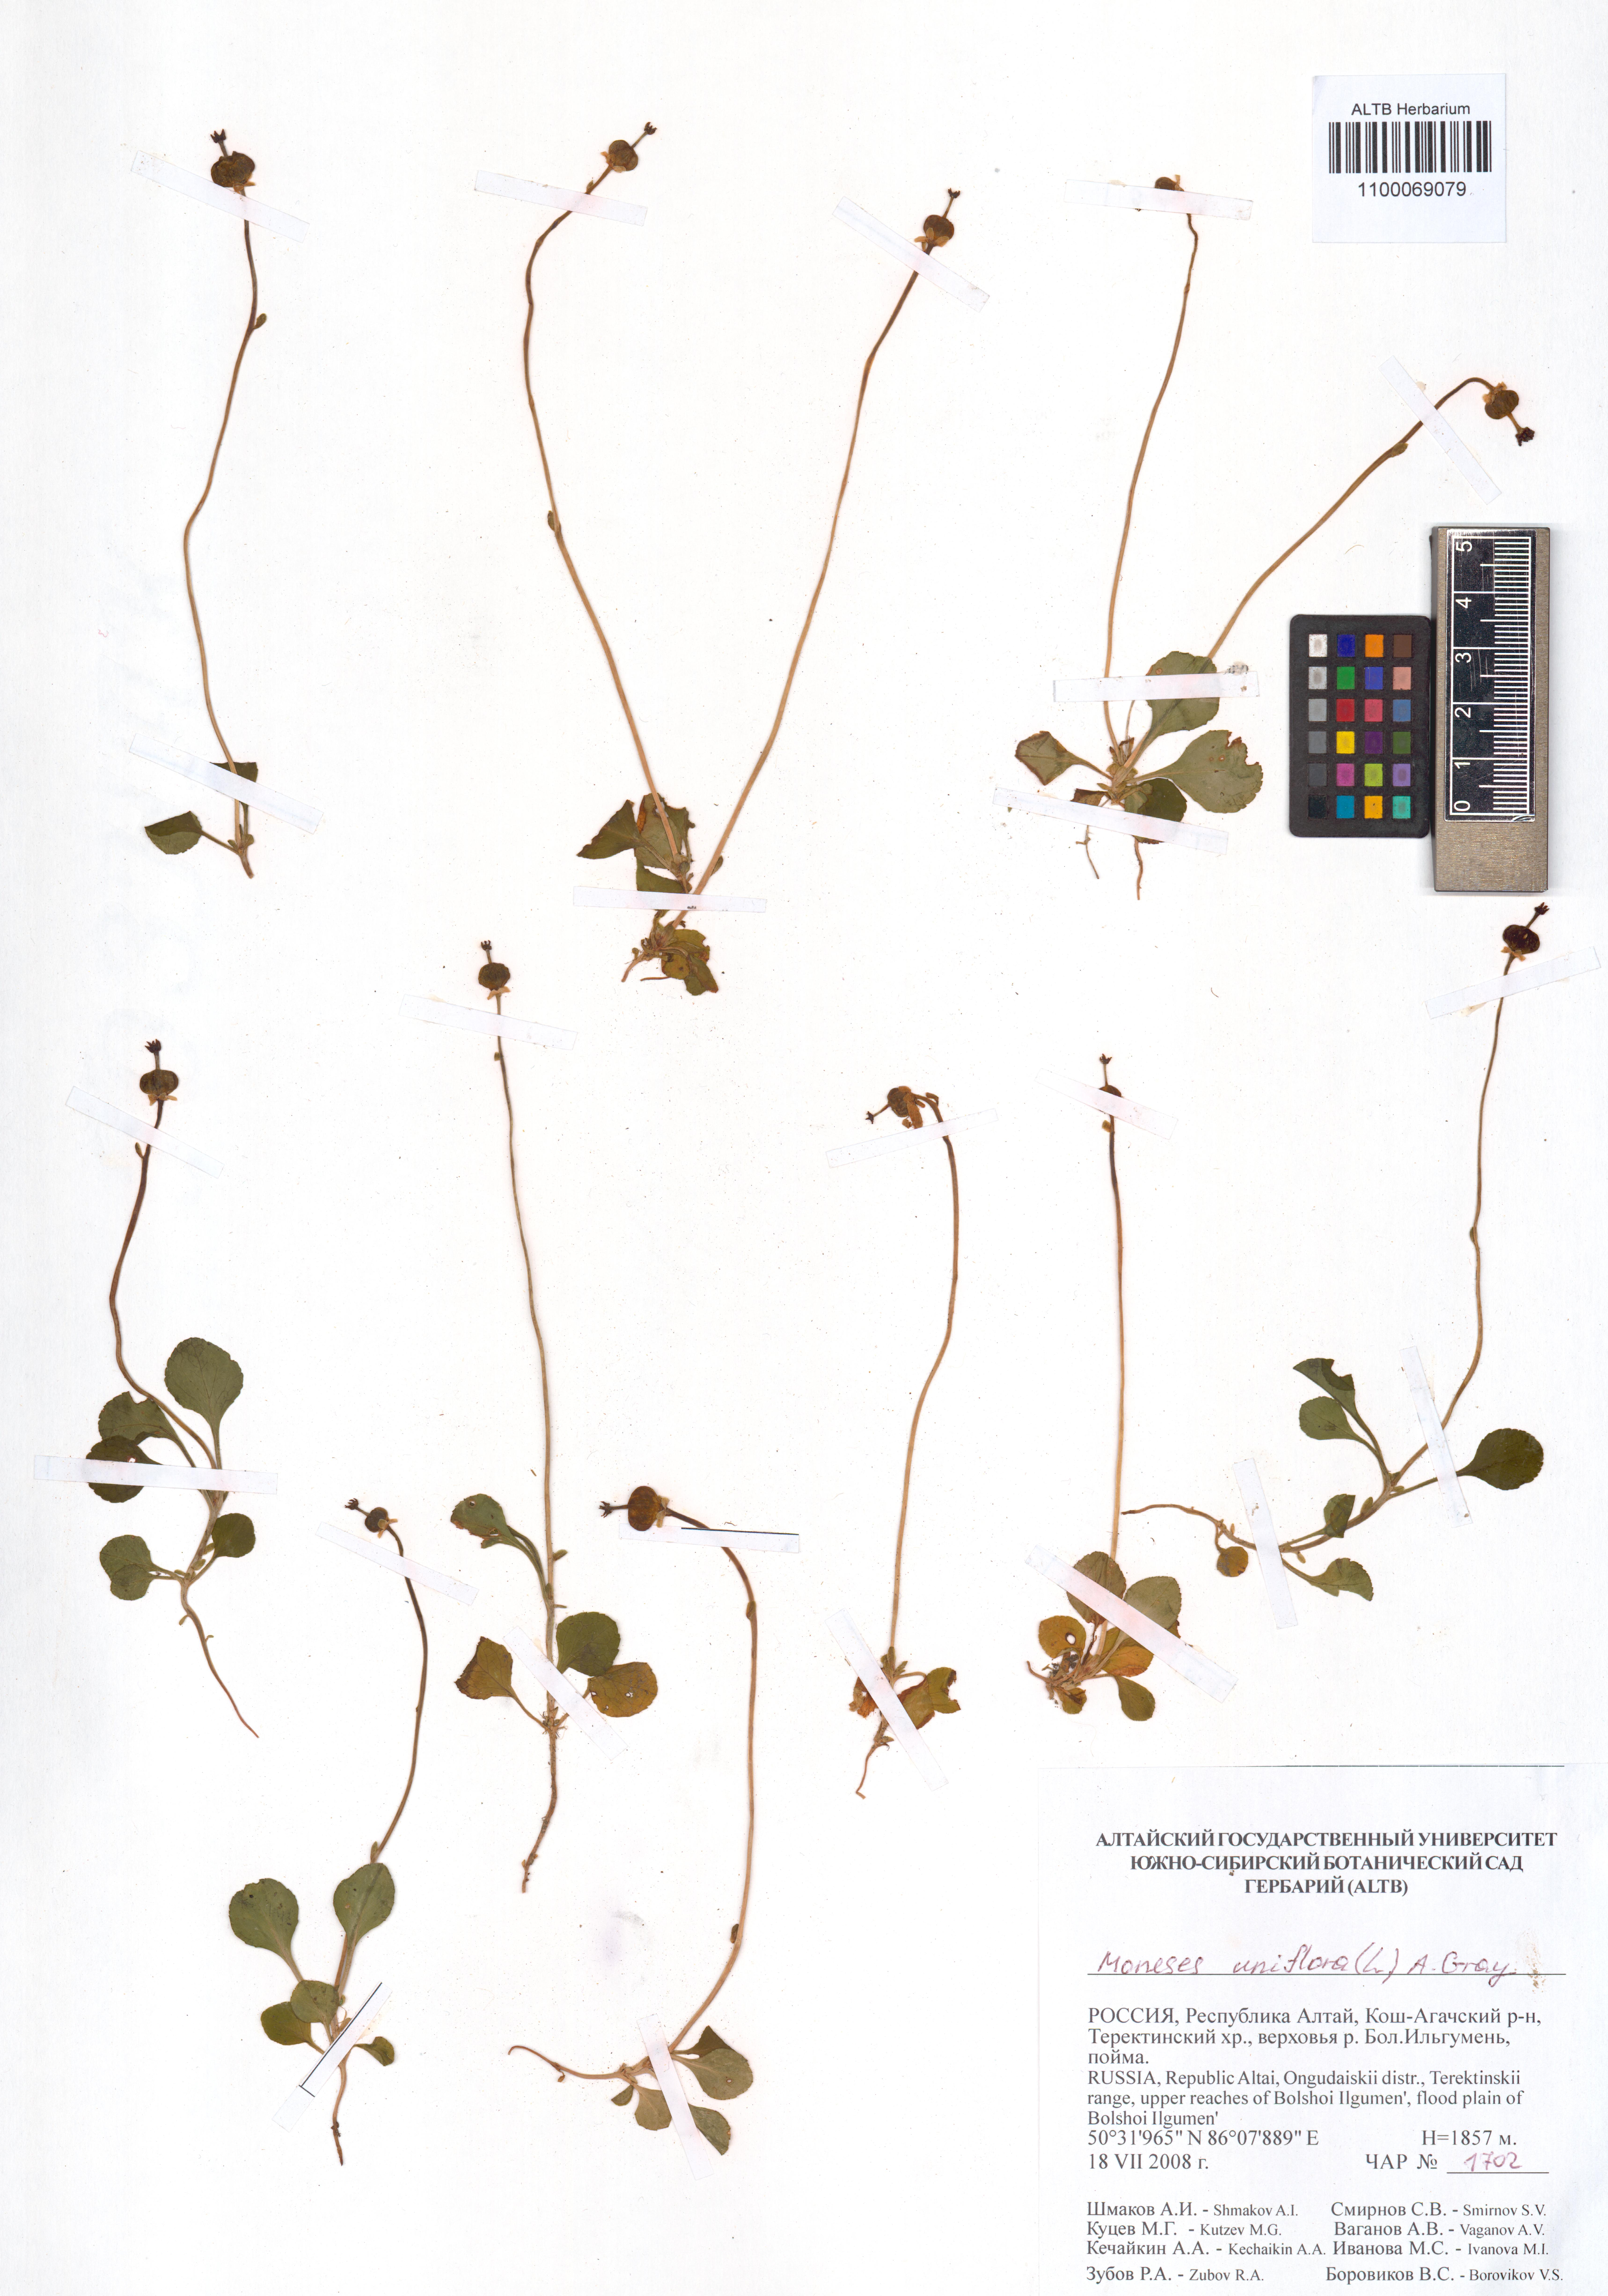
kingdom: Plantae
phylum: Tracheophyta
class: Magnoliopsida
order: Ericales
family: Ericaceae
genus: Moneses
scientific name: Moneses uniflora
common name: One-flowered wintergreen
